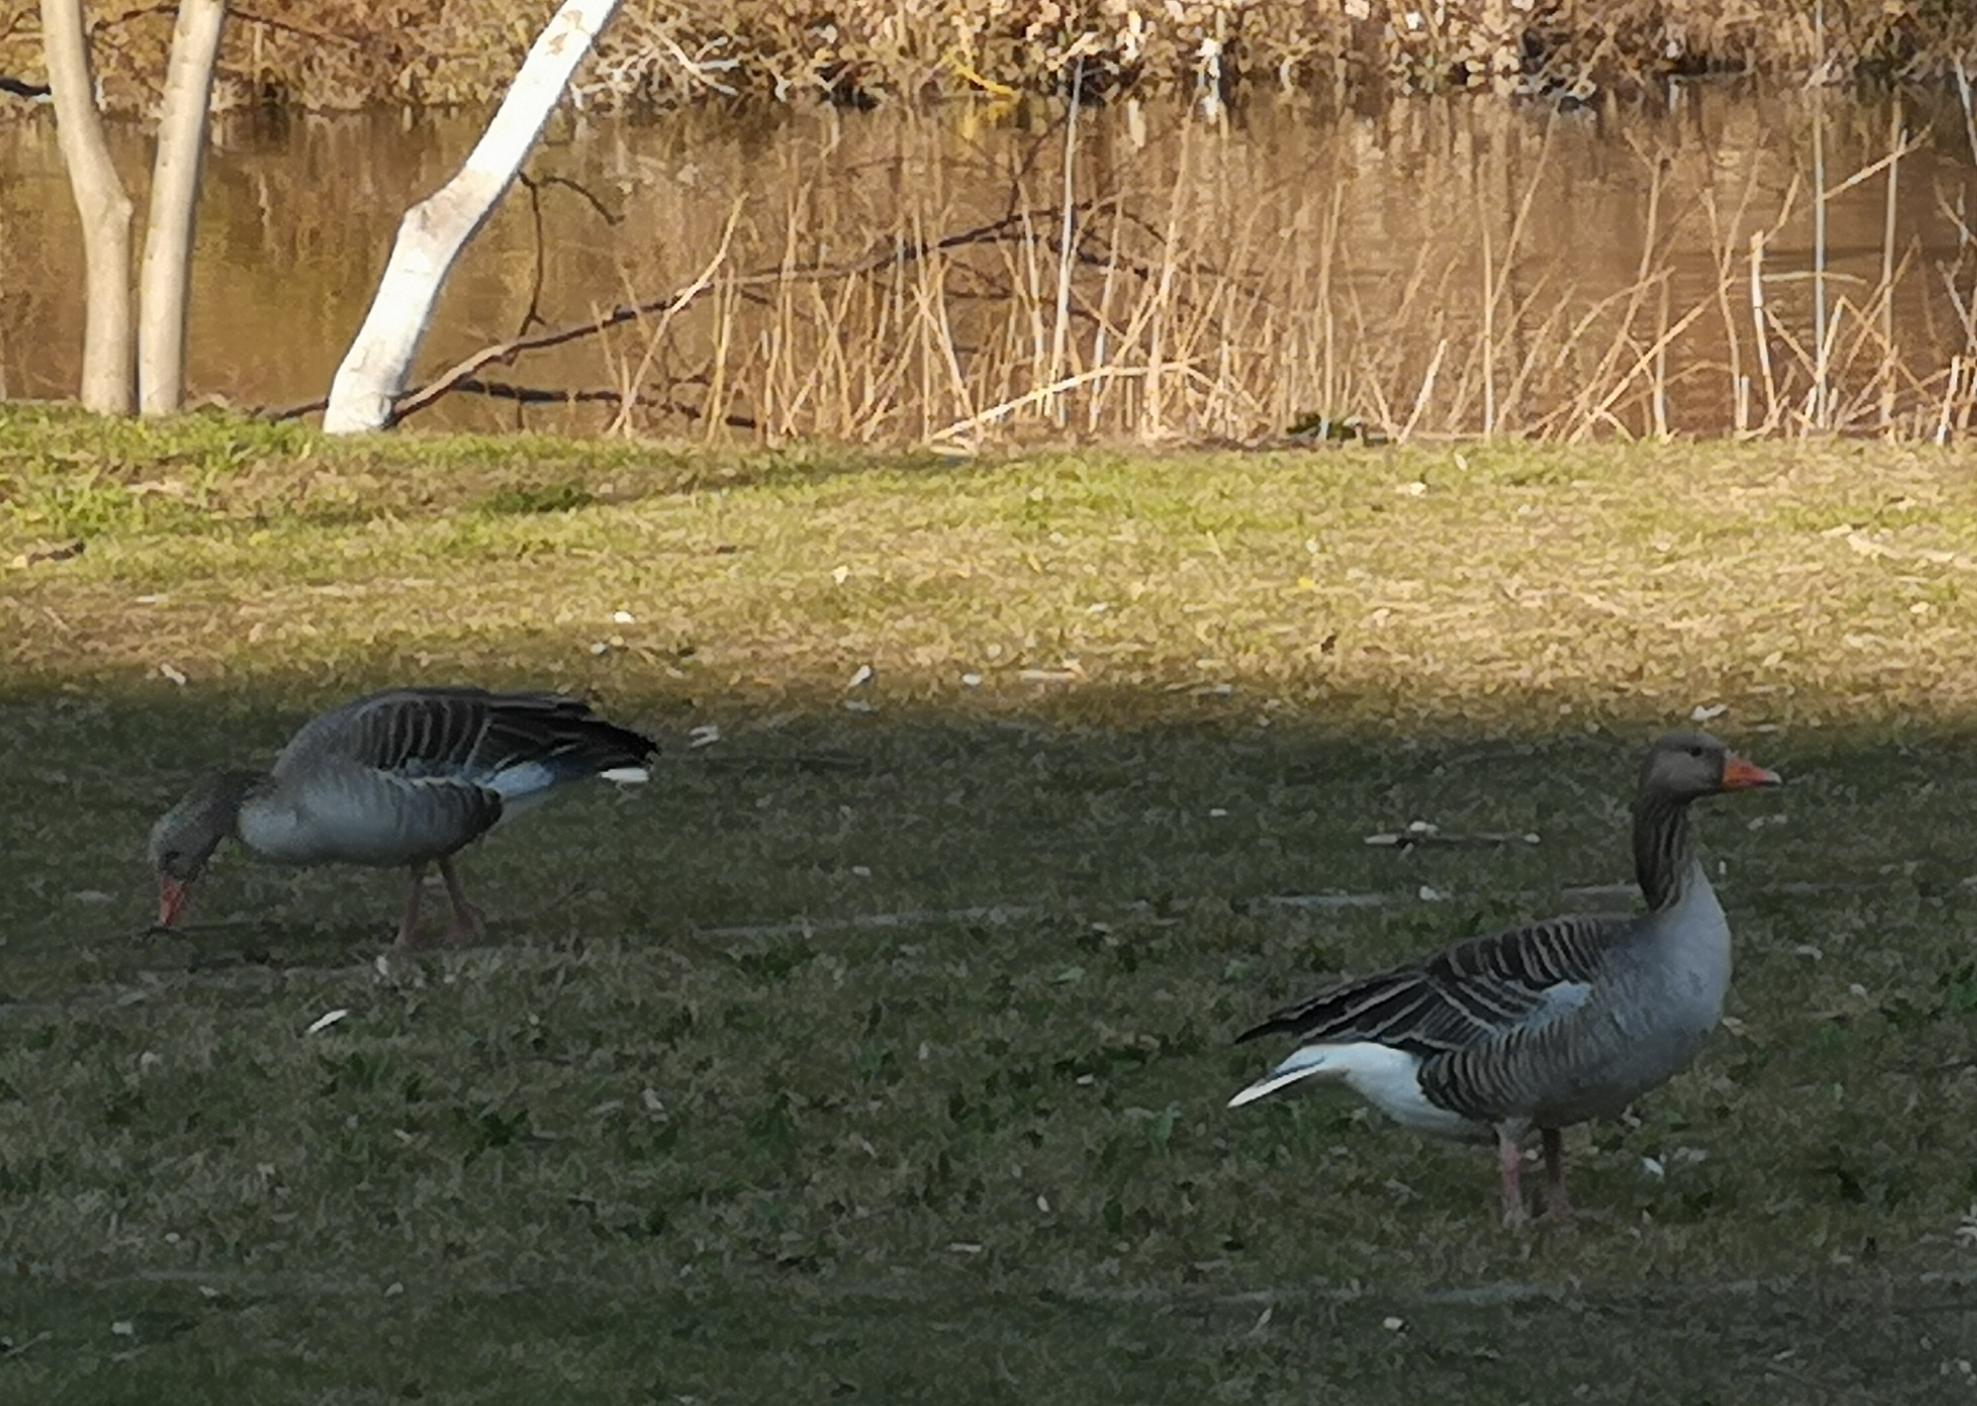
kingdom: Animalia
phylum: Chordata
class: Aves
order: Anseriformes
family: Anatidae
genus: Anser
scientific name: Anser anser
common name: Grågås
